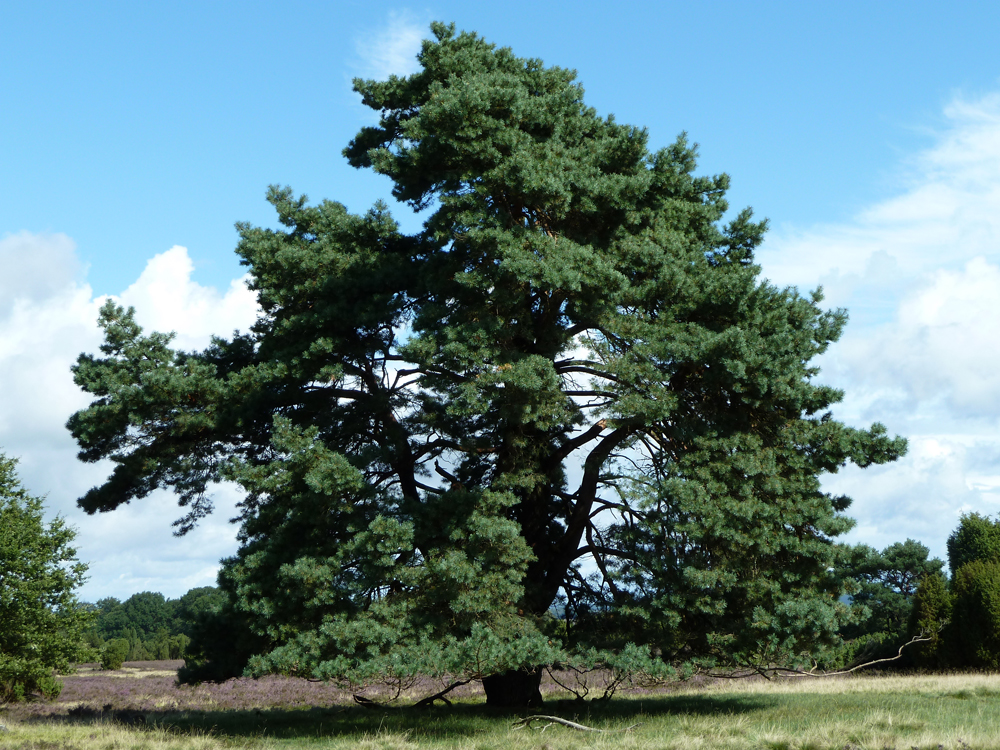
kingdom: Plantae
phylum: Tracheophyta
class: Pinopsida
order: Pinales
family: Pinaceae
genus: Pinus
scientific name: Pinus sylvestris
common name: Scots pine
